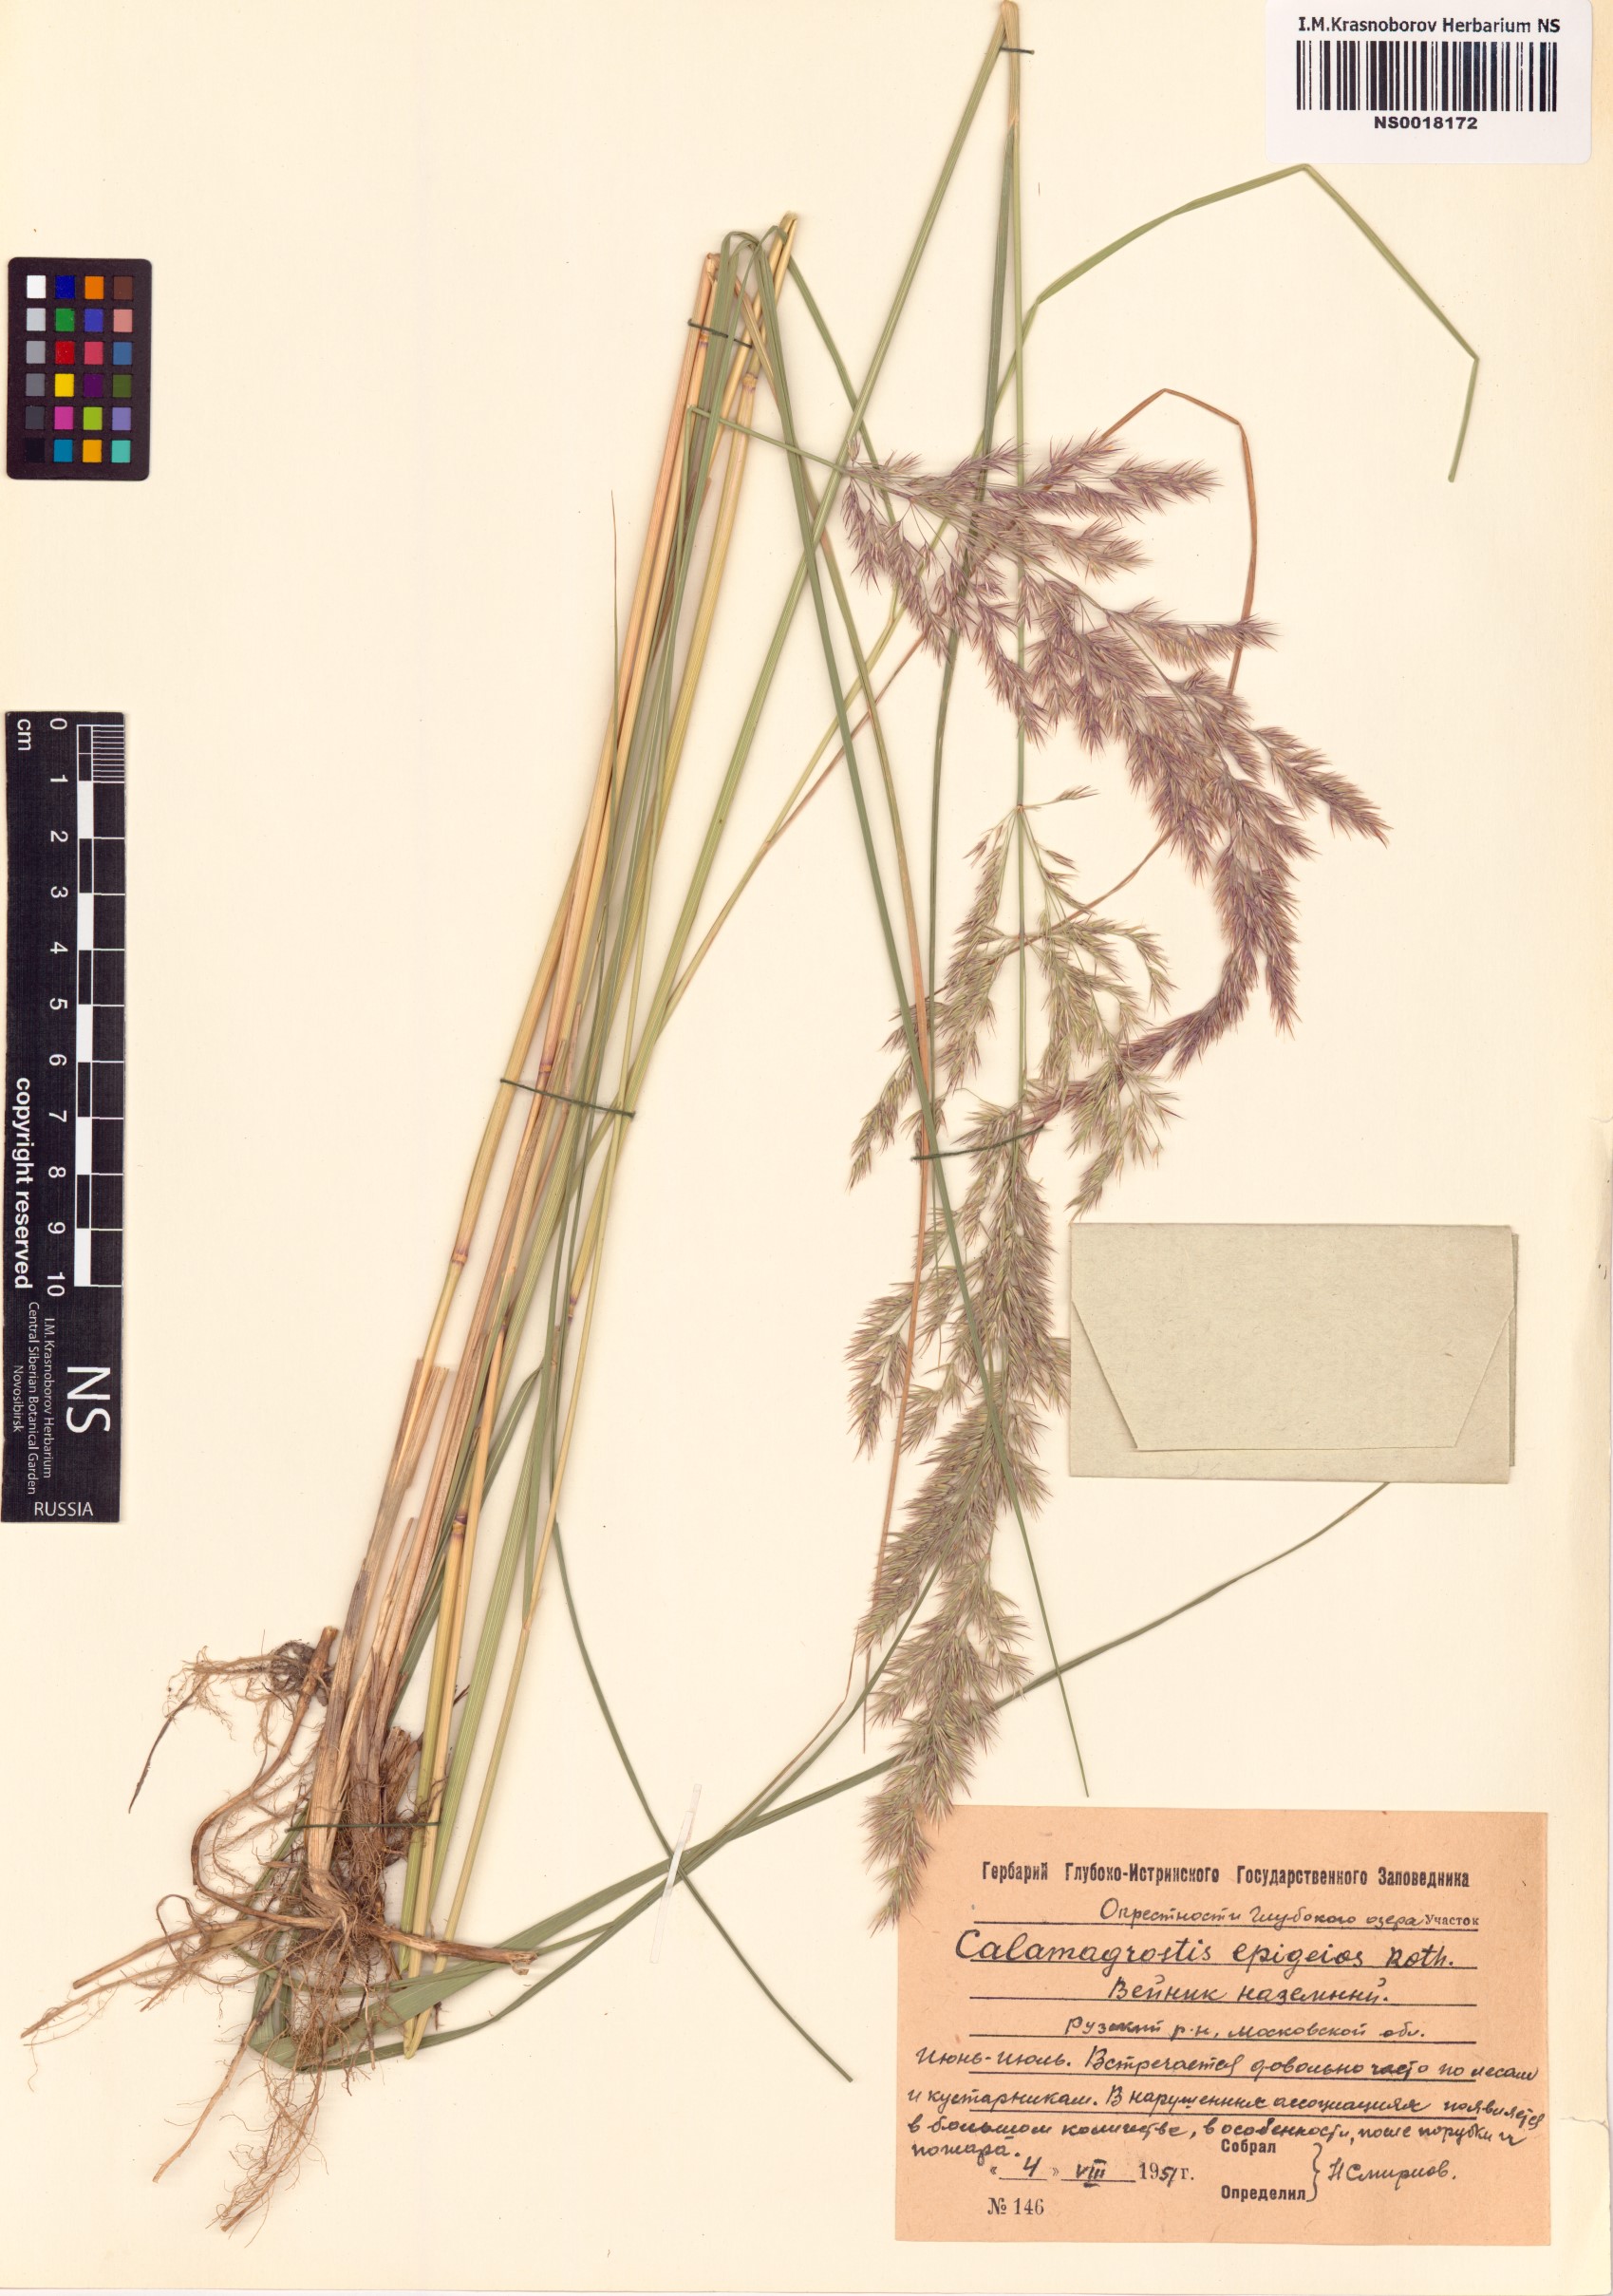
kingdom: Plantae
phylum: Tracheophyta
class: Liliopsida
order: Poales
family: Poaceae
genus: Calamagrostis
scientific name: Calamagrostis epigejos
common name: Wood small-reed
